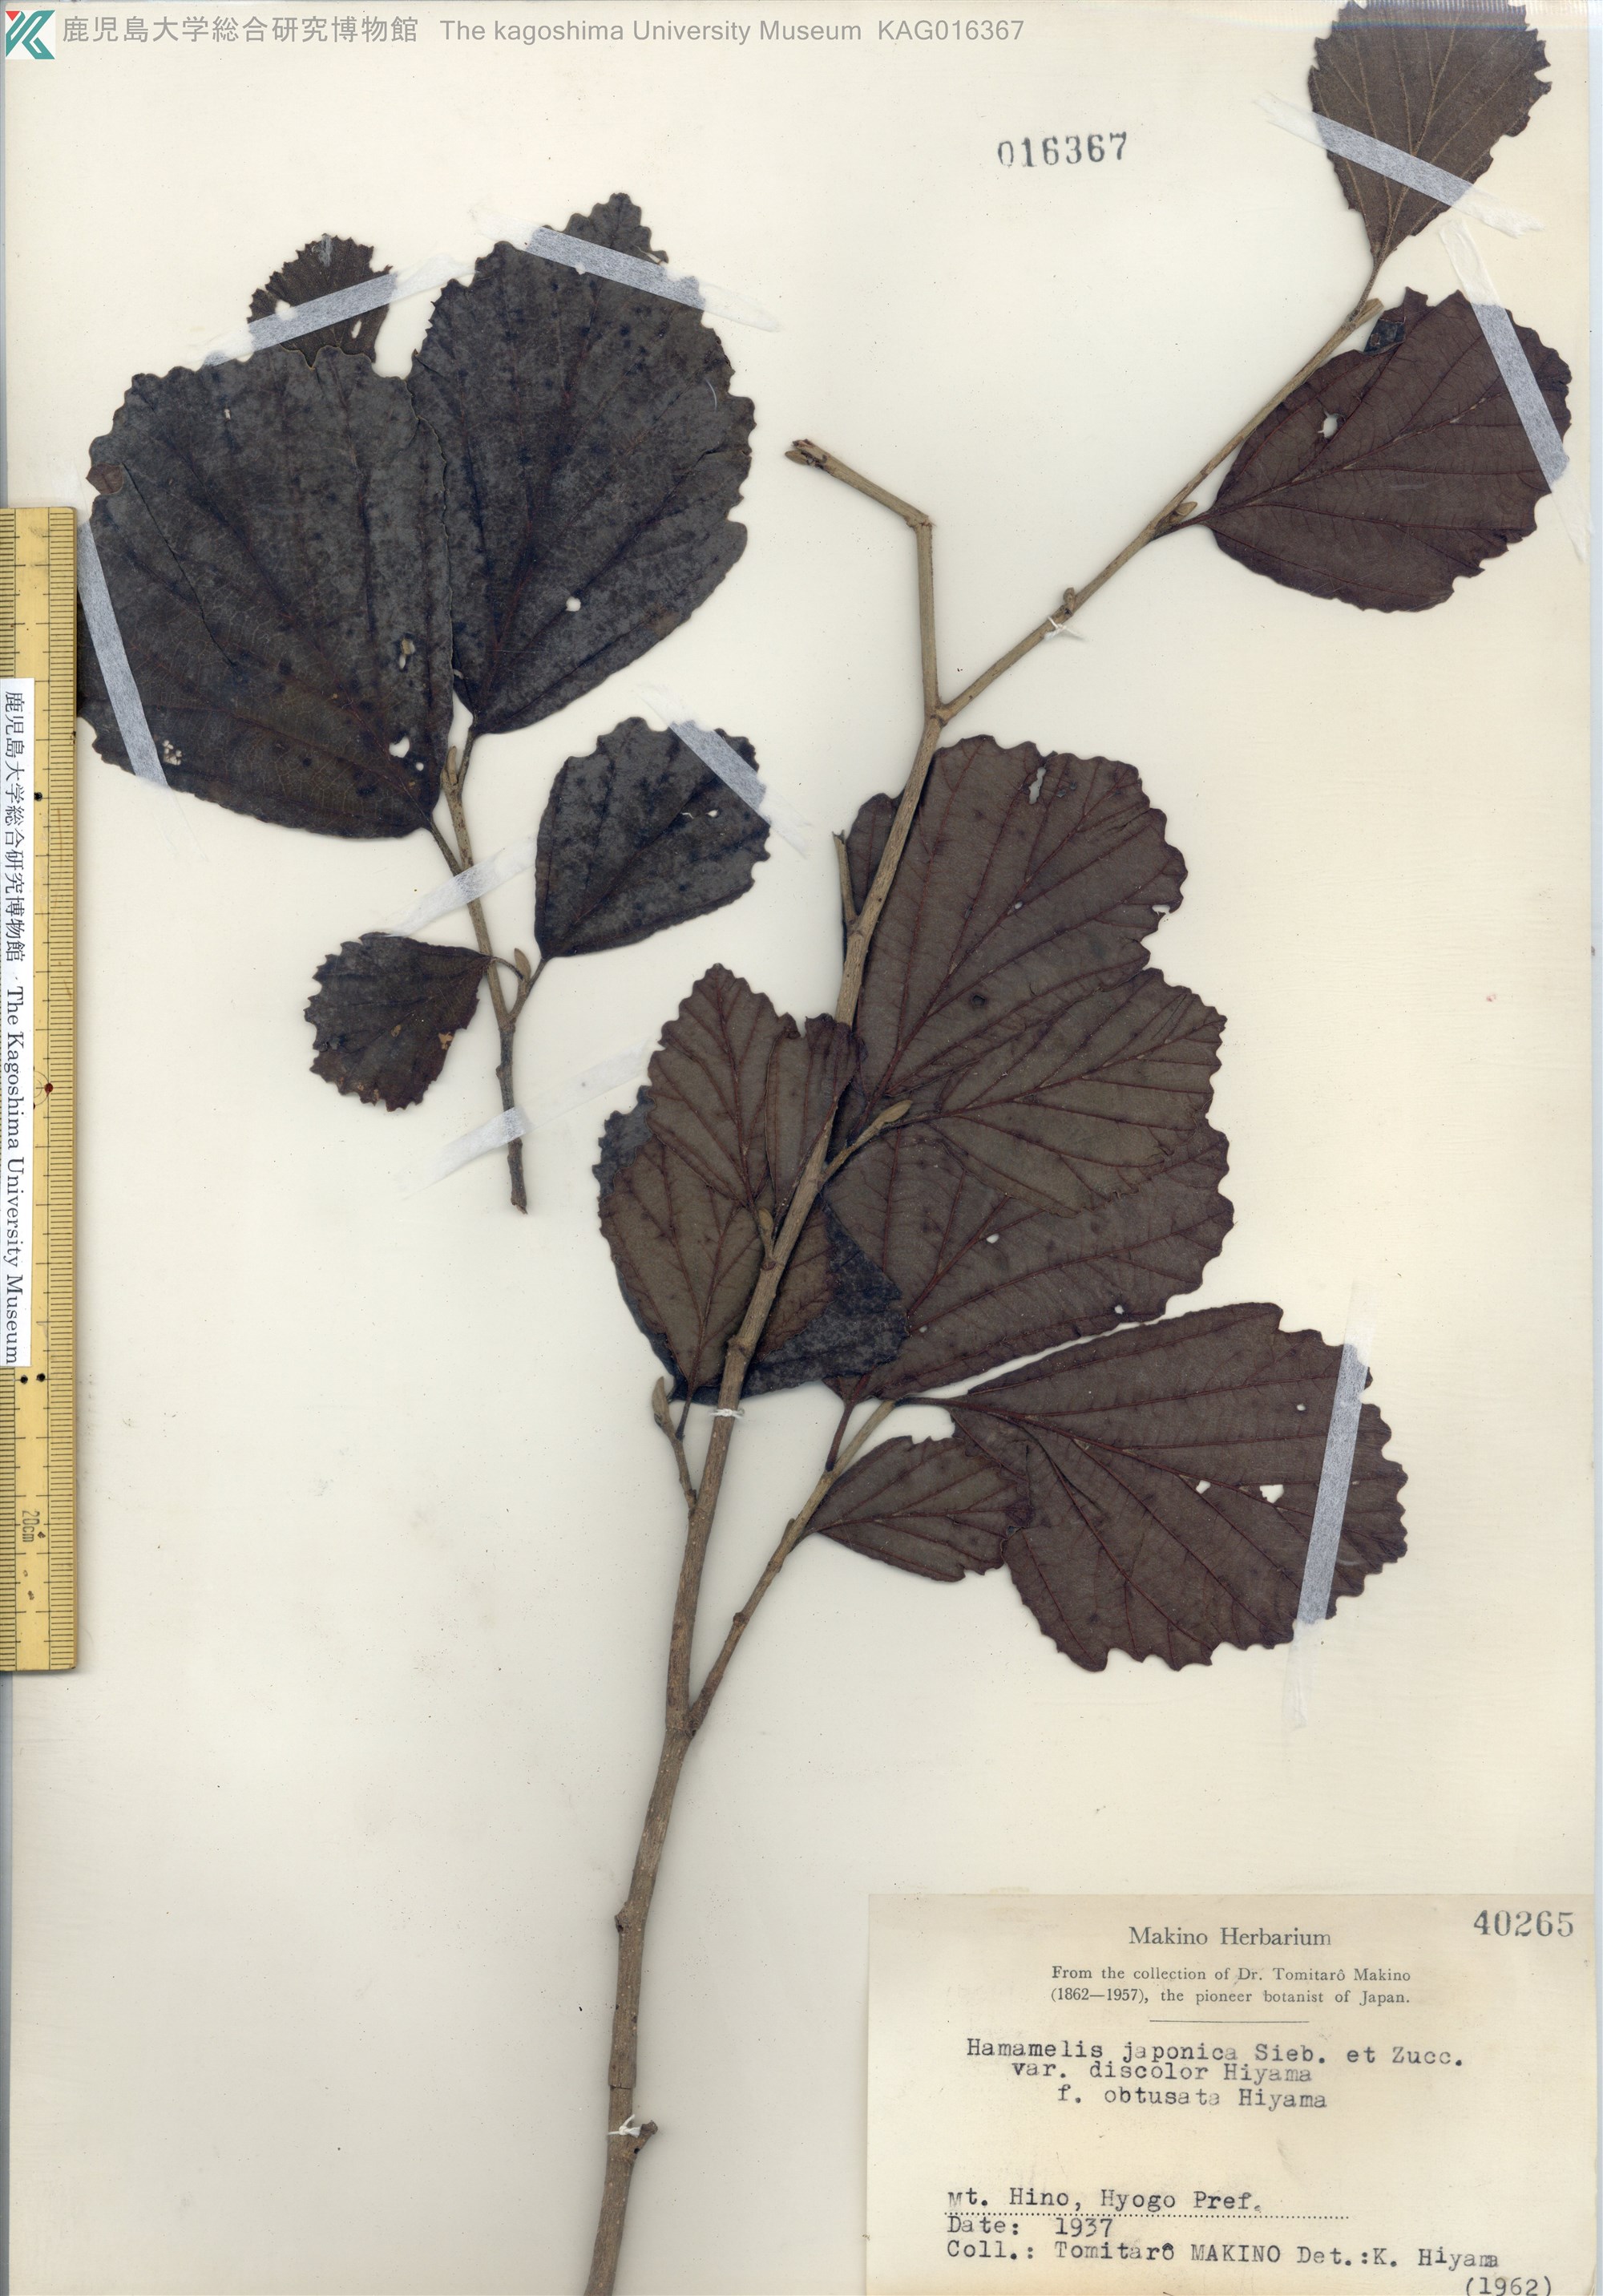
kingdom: Plantae
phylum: Tracheophyta
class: Magnoliopsida
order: Saxifragales
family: Hamamelidaceae
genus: Hamamelis
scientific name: Hamamelis japonica
